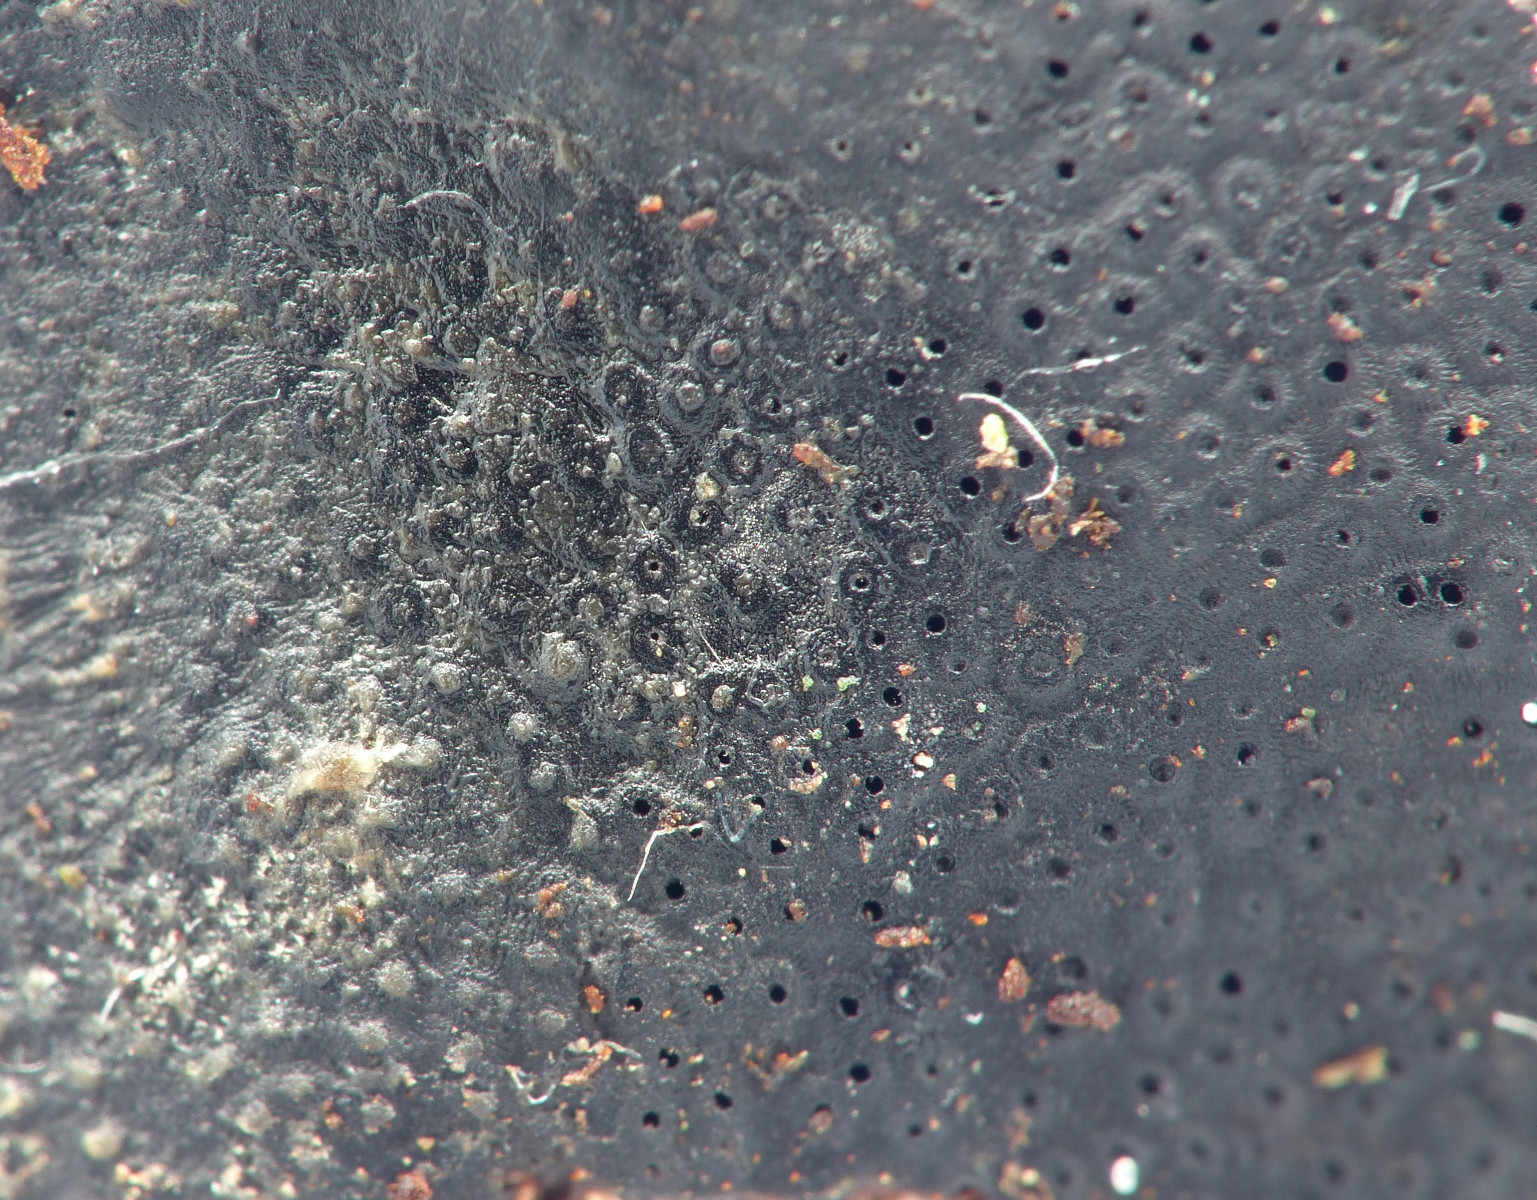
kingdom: Fungi
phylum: Ascomycota
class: Sordariomycetes
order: Boliniales
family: Boliniaceae
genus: Camarops
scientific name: Camarops polysperma
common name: elle-kulsnegl
